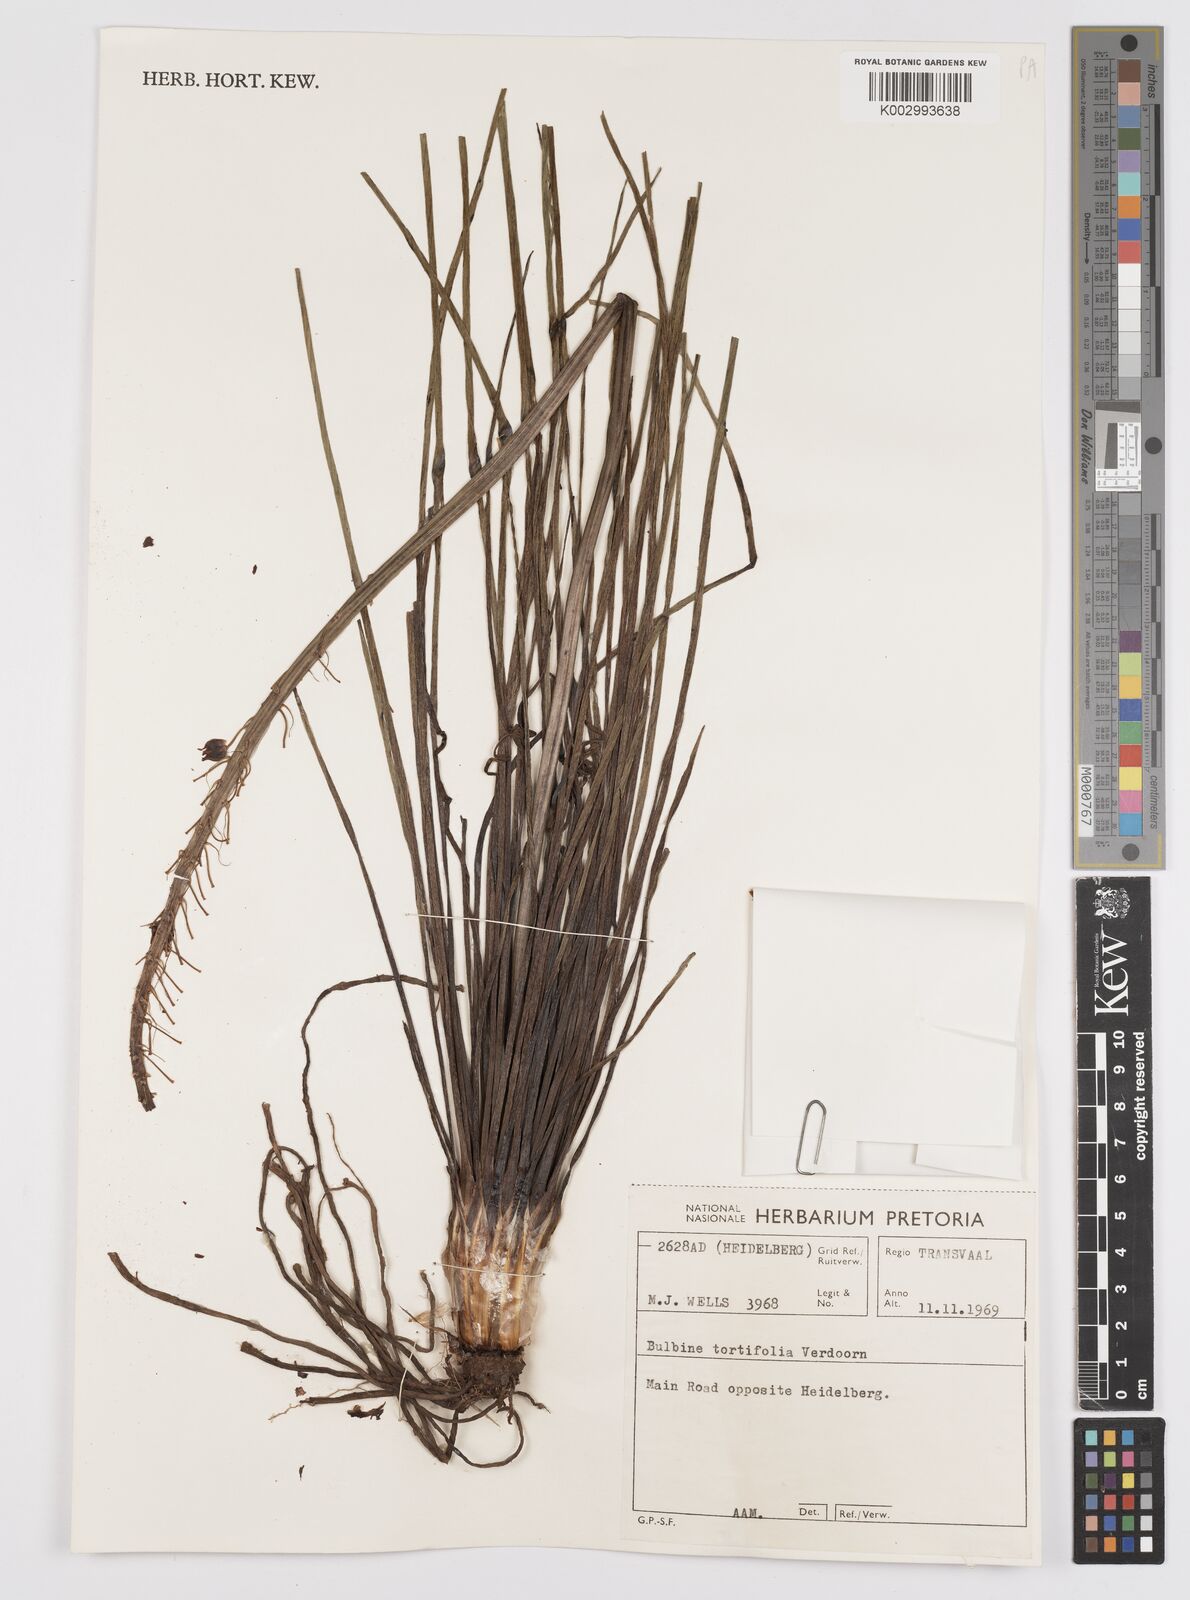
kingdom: Plantae
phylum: Tracheophyta
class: Liliopsida
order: Asparagales
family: Asphodelaceae
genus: Bulbine
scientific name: Bulbine angustifolia
